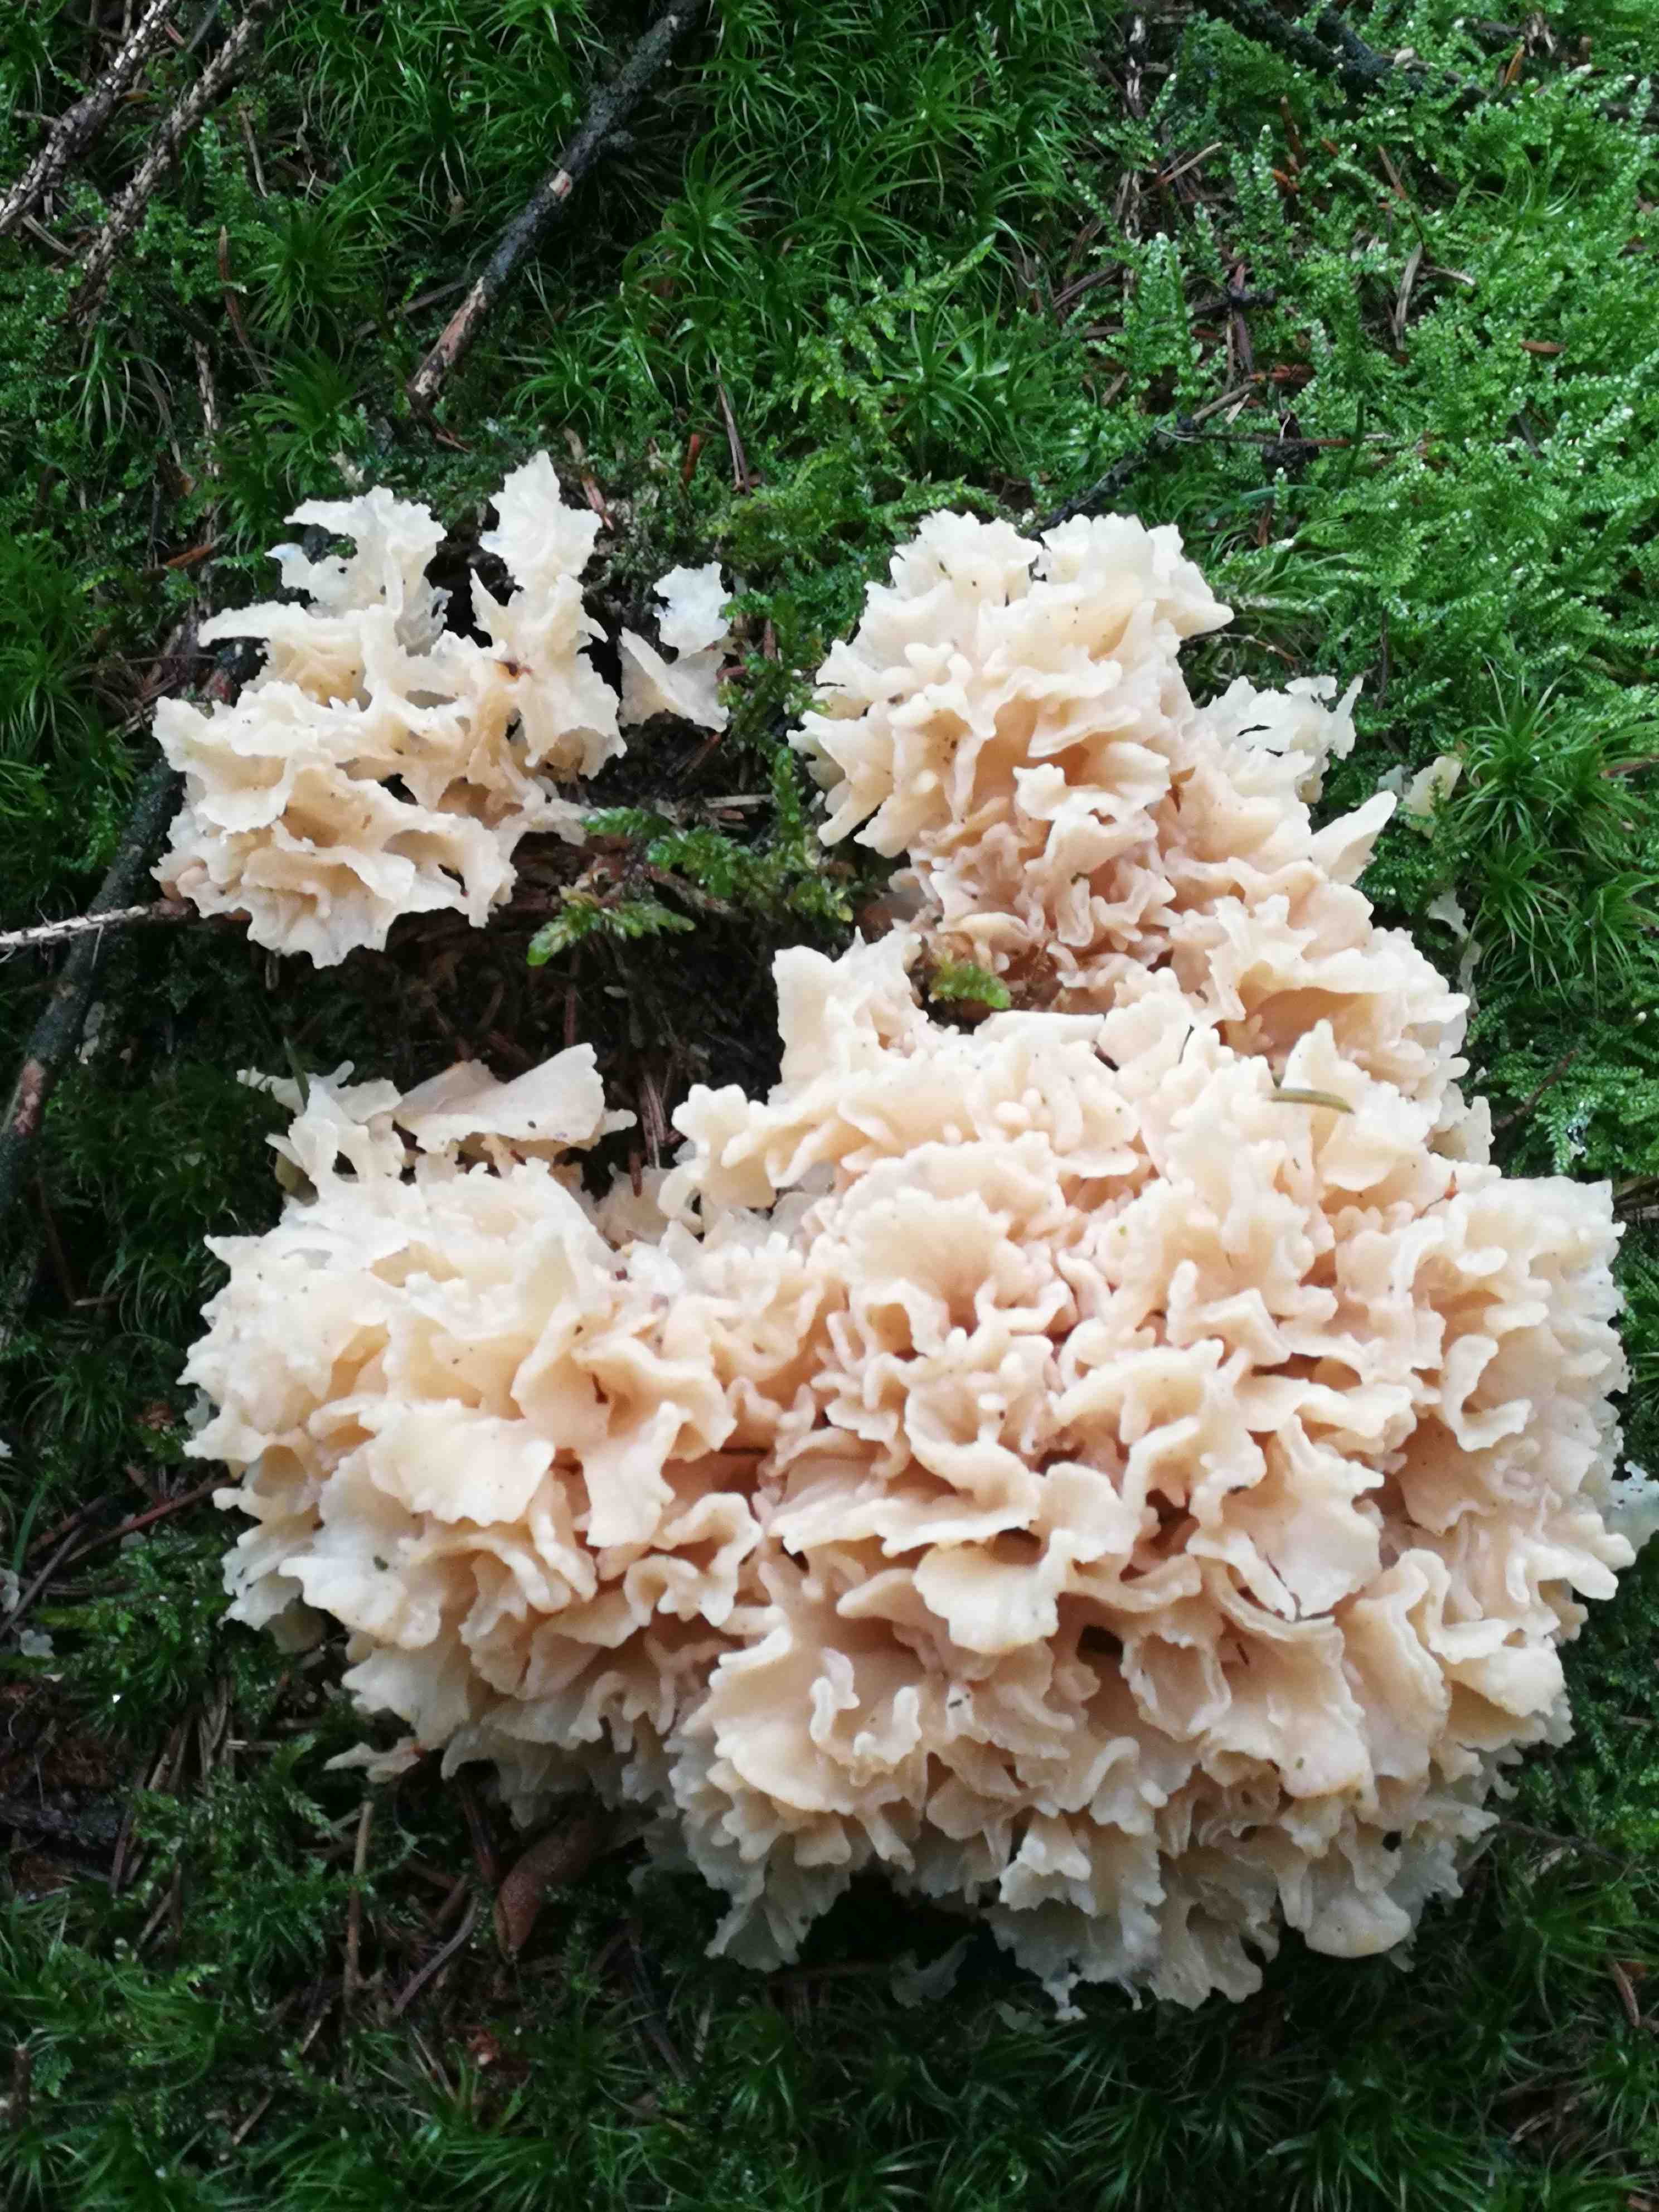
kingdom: Fungi
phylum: Basidiomycota
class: Agaricomycetes
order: Polyporales
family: Sparassidaceae
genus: Sparassis
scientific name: Sparassis crispa
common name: kruset blomkålssvamp
